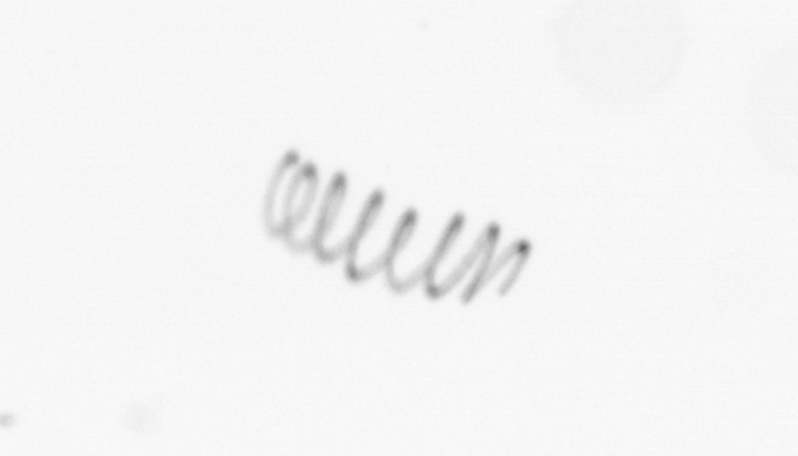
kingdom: Chromista
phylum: Ochrophyta
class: Bacillariophyceae
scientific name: Bacillariophyceae
